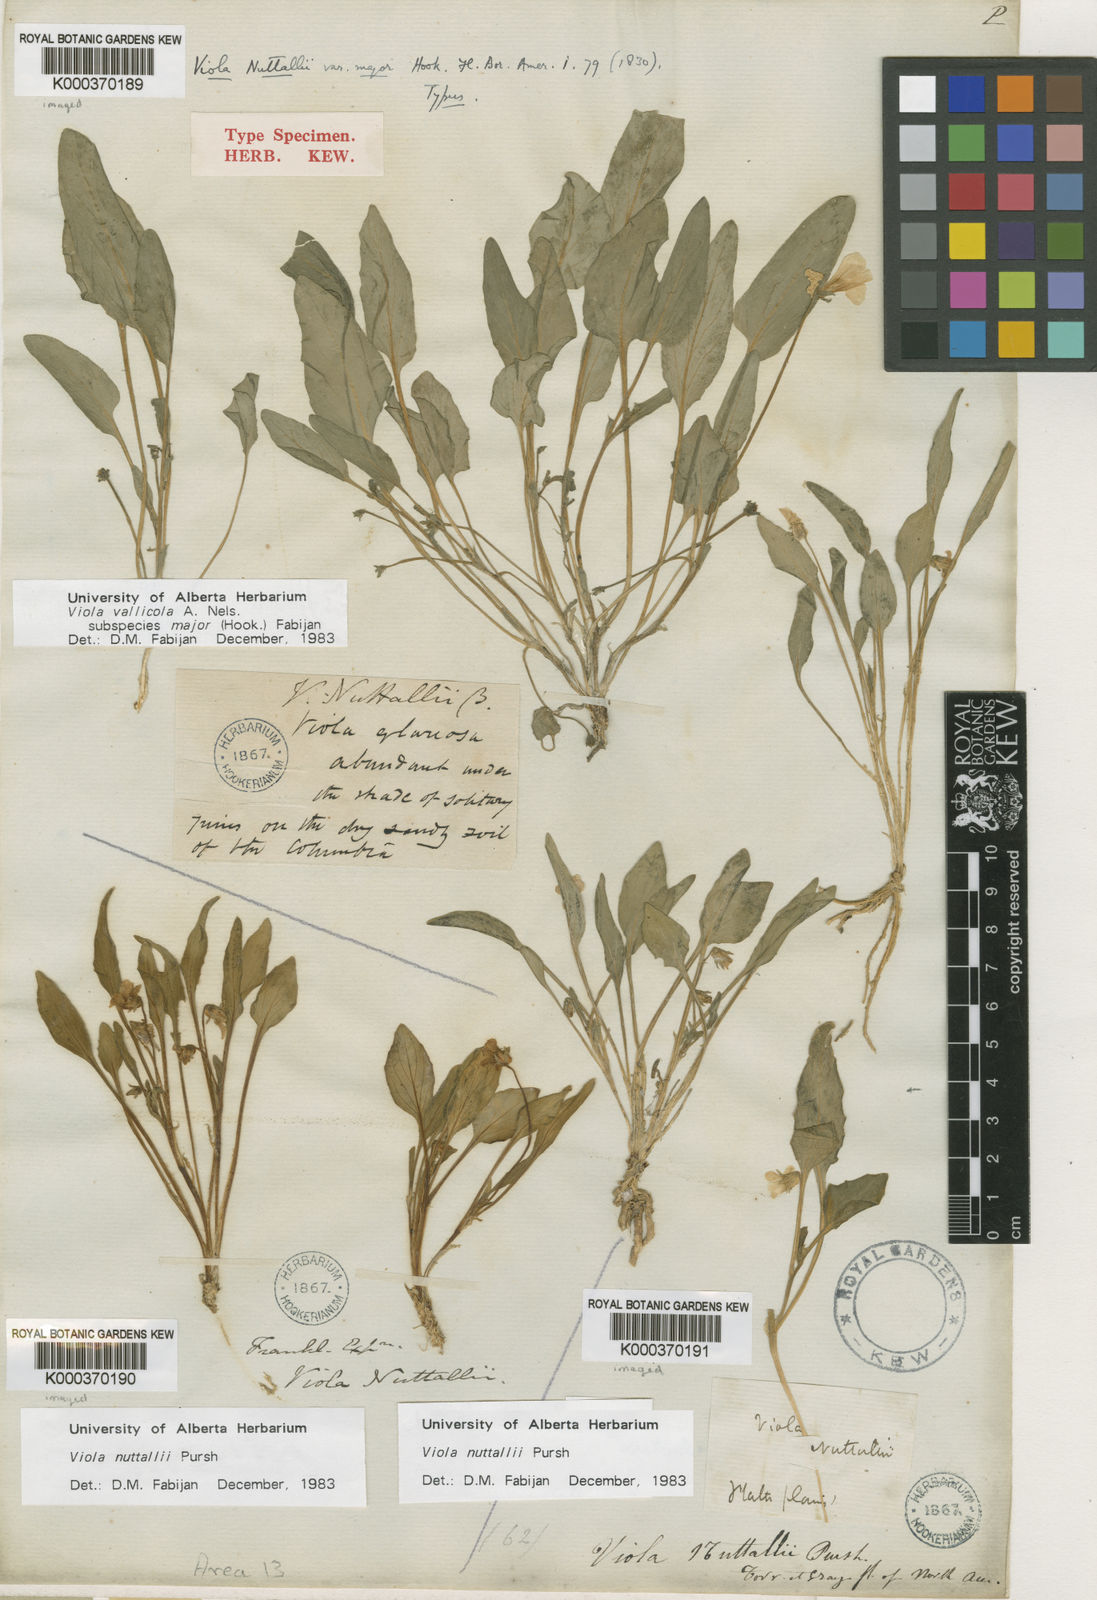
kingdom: Plantae
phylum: Tracheophyta
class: Magnoliopsida
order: Malpighiales
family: Violaceae
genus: Viola
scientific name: Viola vallicola
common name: Valley violet
